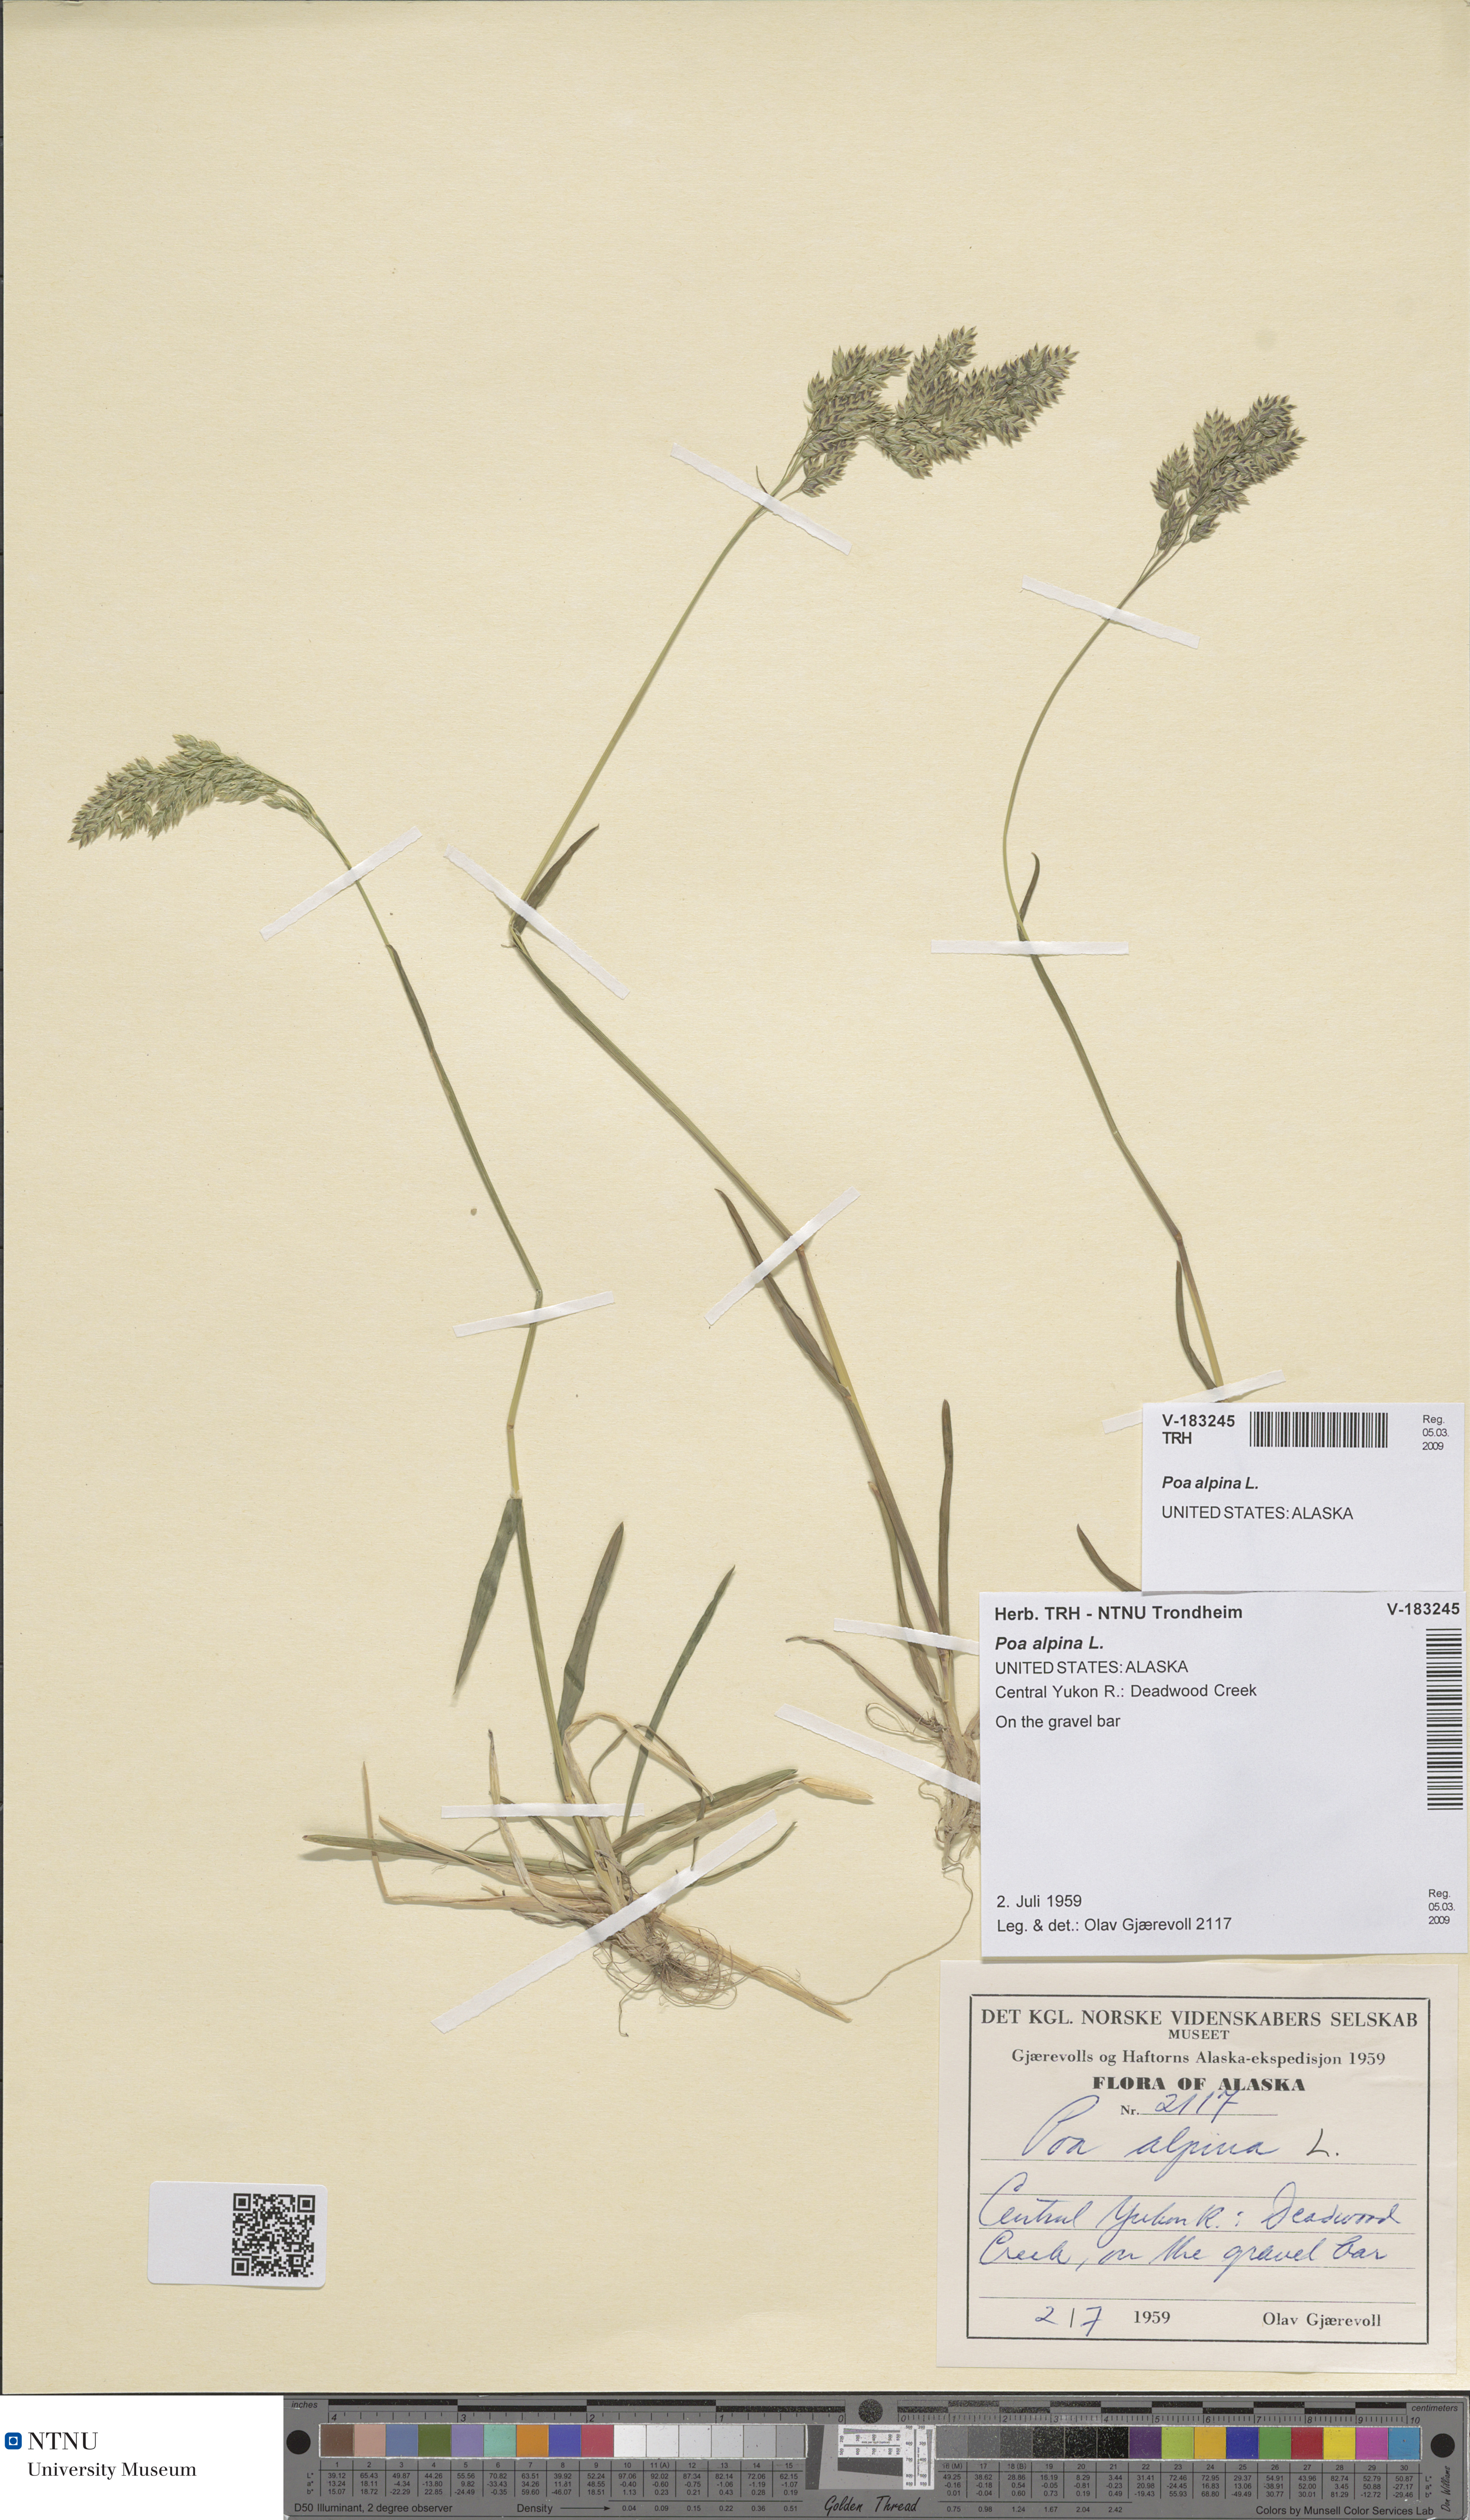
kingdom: Plantae
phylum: Tracheophyta
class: Liliopsida
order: Poales
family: Poaceae
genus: Poa
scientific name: Poa alpina
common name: Alpine bluegrass
